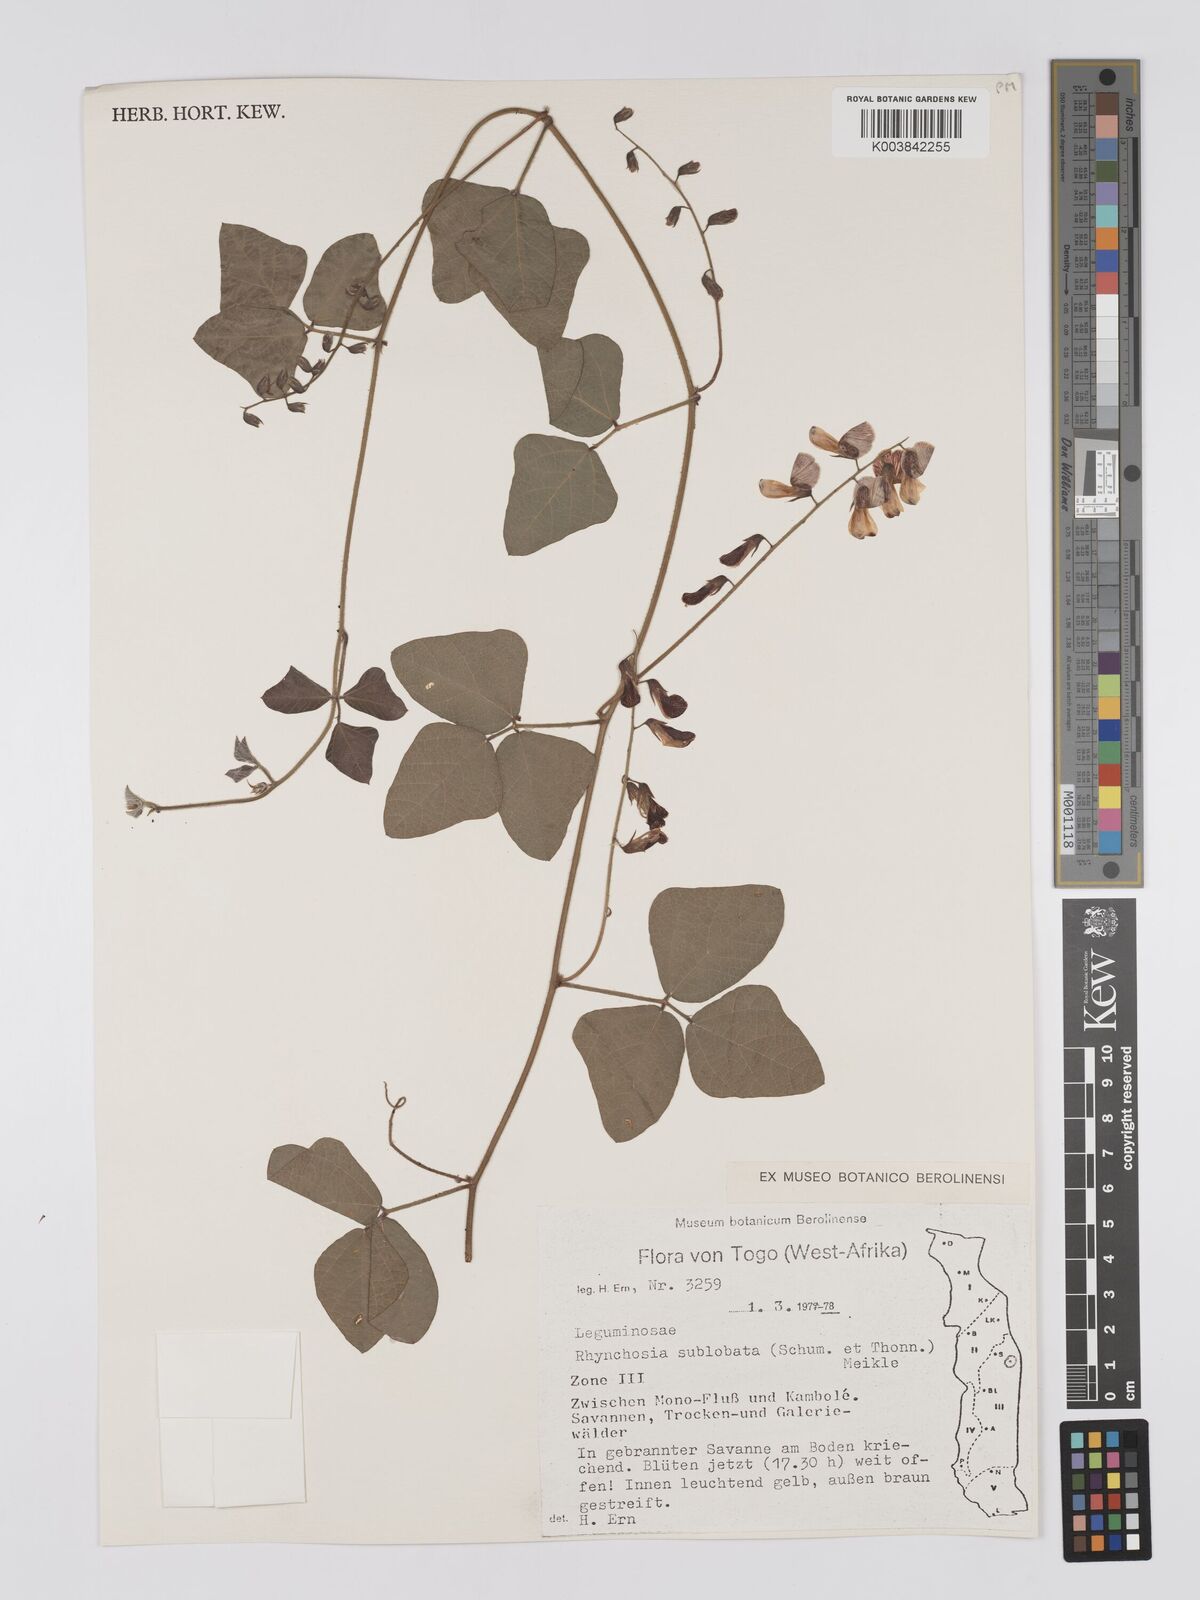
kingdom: Plantae
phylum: Tracheophyta
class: Magnoliopsida
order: Fabales
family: Fabaceae
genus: Rhynchosia
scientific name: Rhynchosia sublobata
